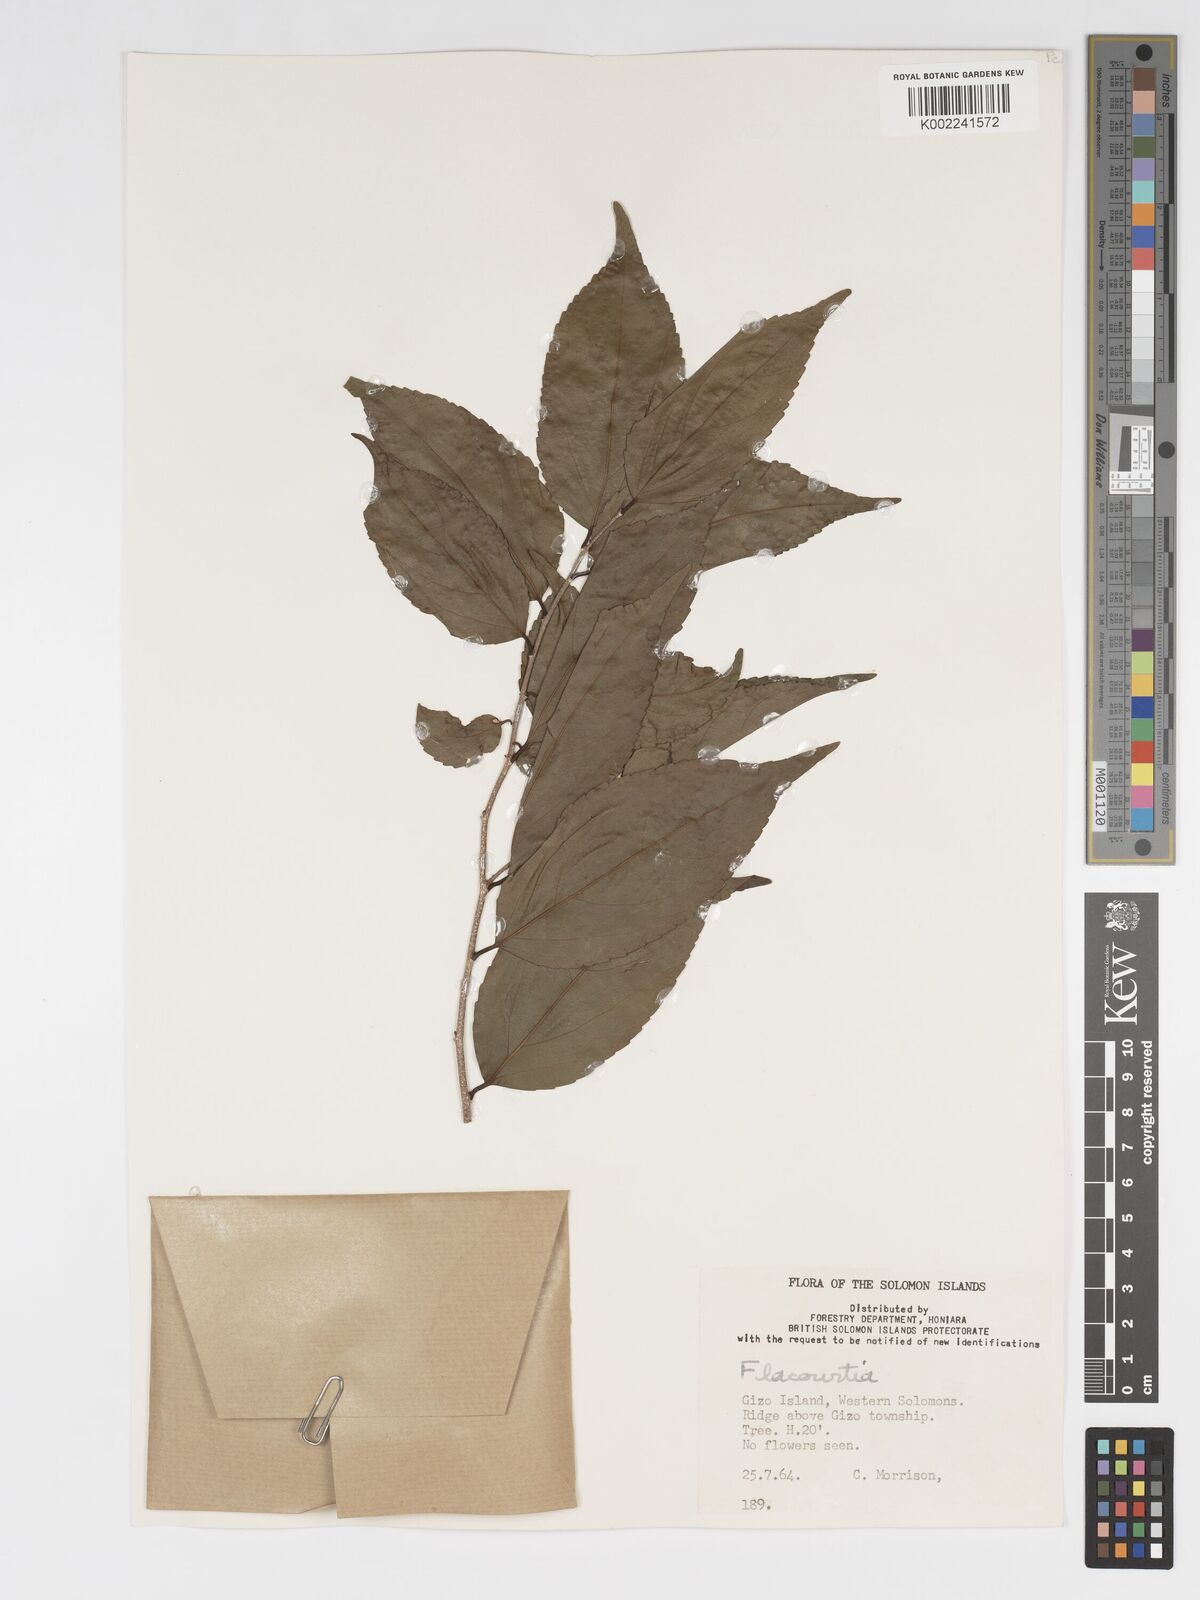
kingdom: Plantae
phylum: Tracheophyta
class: Magnoliopsida
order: Malpighiales
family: Salicaceae
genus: Flacourtia
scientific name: Flacourtia
